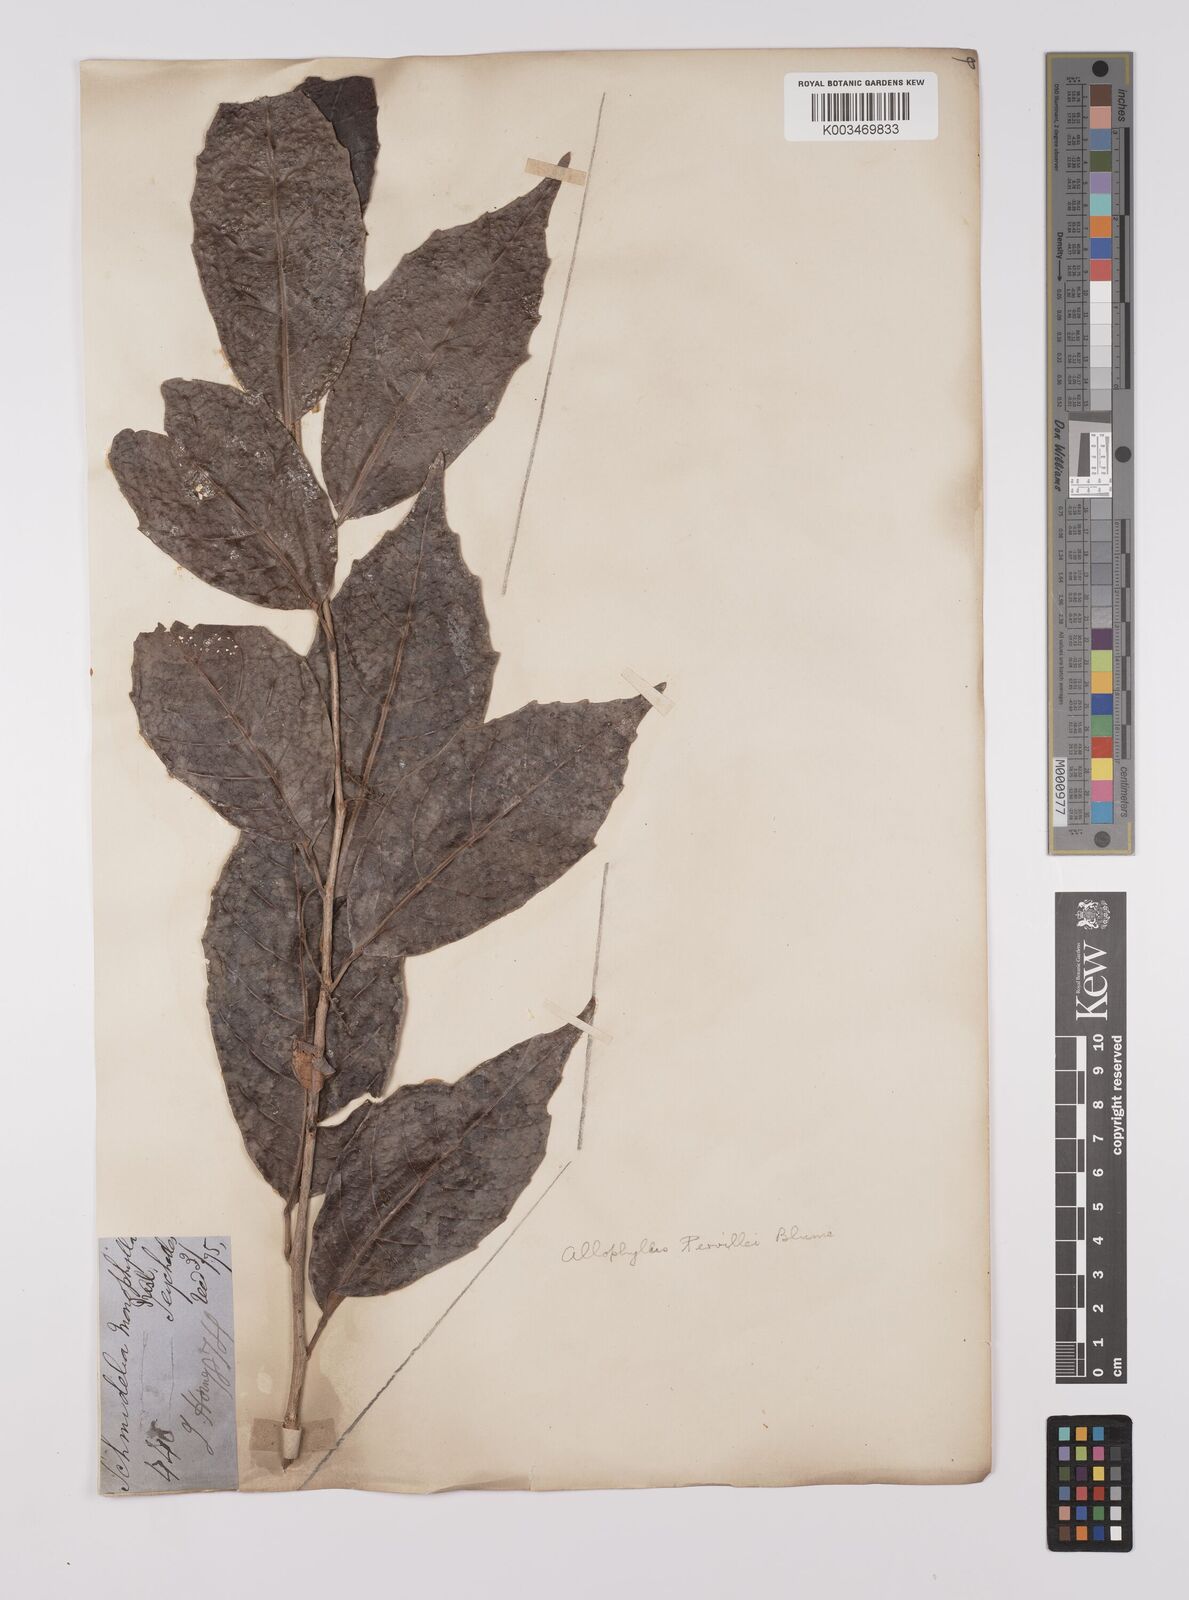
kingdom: Plantae
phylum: Tracheophyta
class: Magnoliopsida
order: Sapindales
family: Sapindaceae
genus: Allophylus
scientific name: Allophylus pervillei
